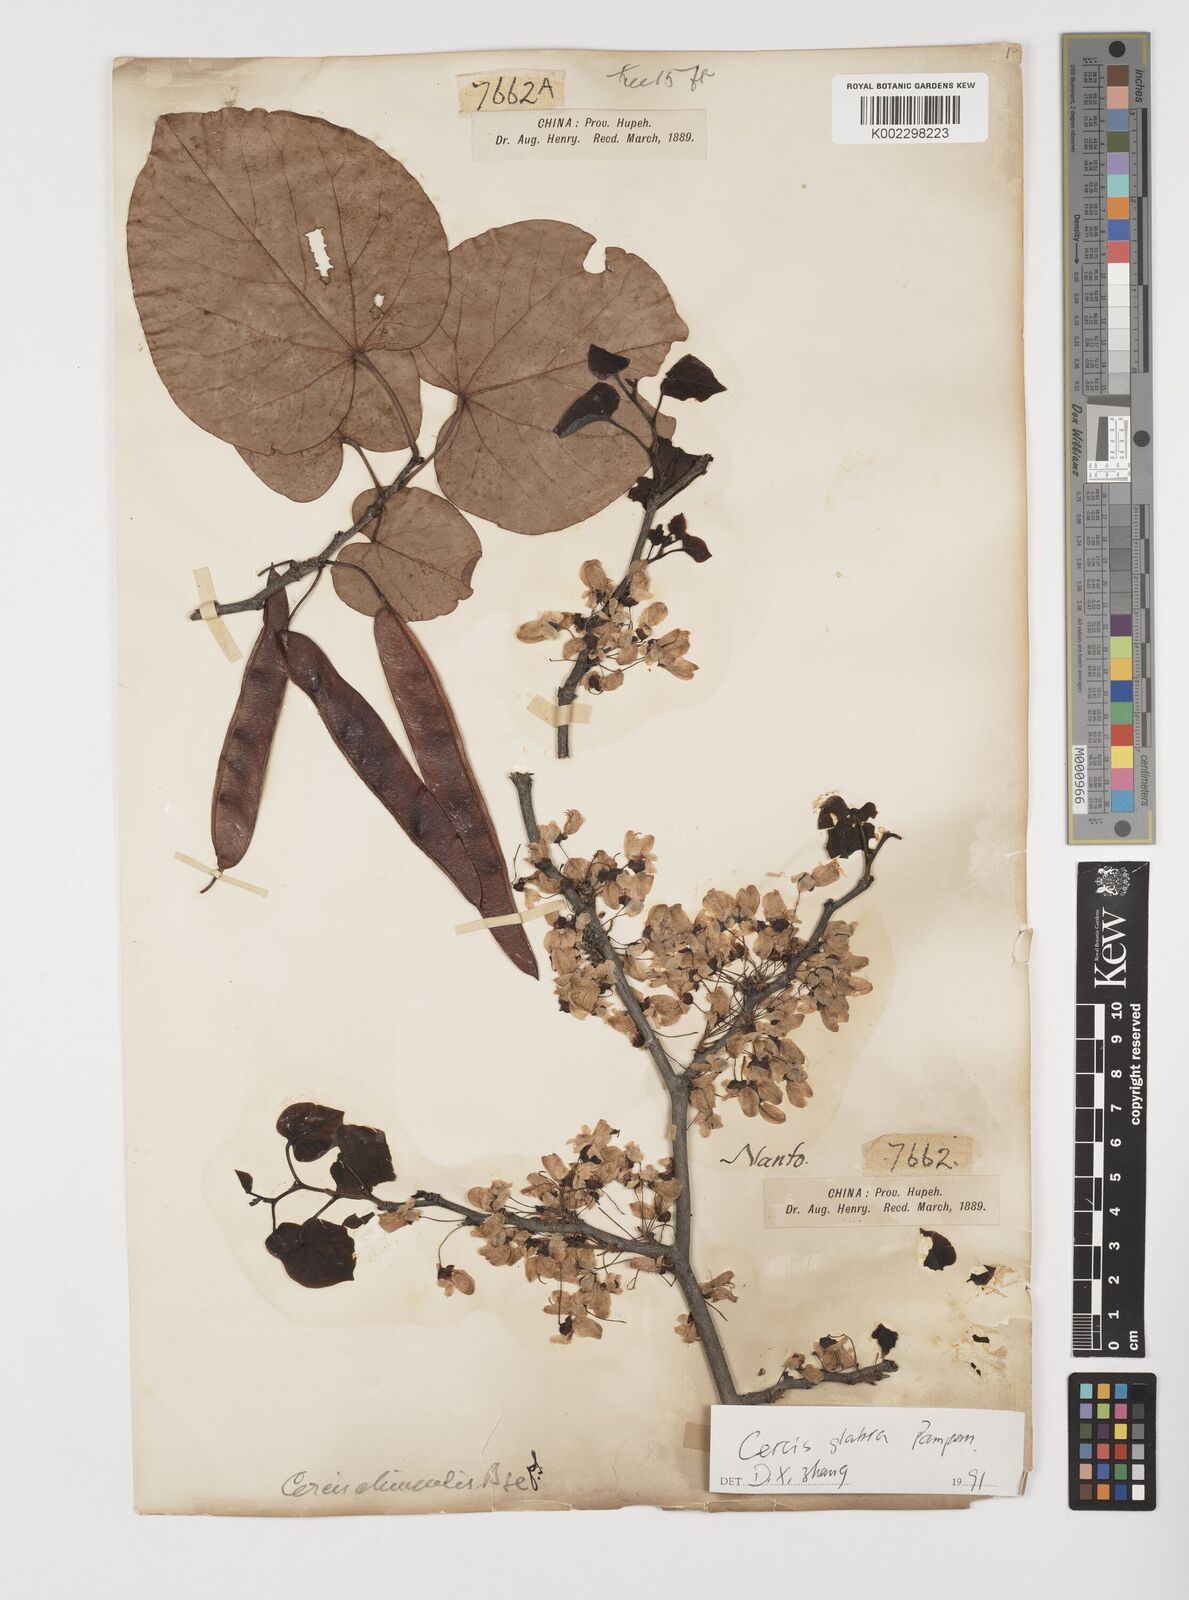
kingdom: Plantae
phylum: Tracheophyta
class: Magnoliopsida
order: Fabales
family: Fabaceae
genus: Cercis
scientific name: Cercis glabra
